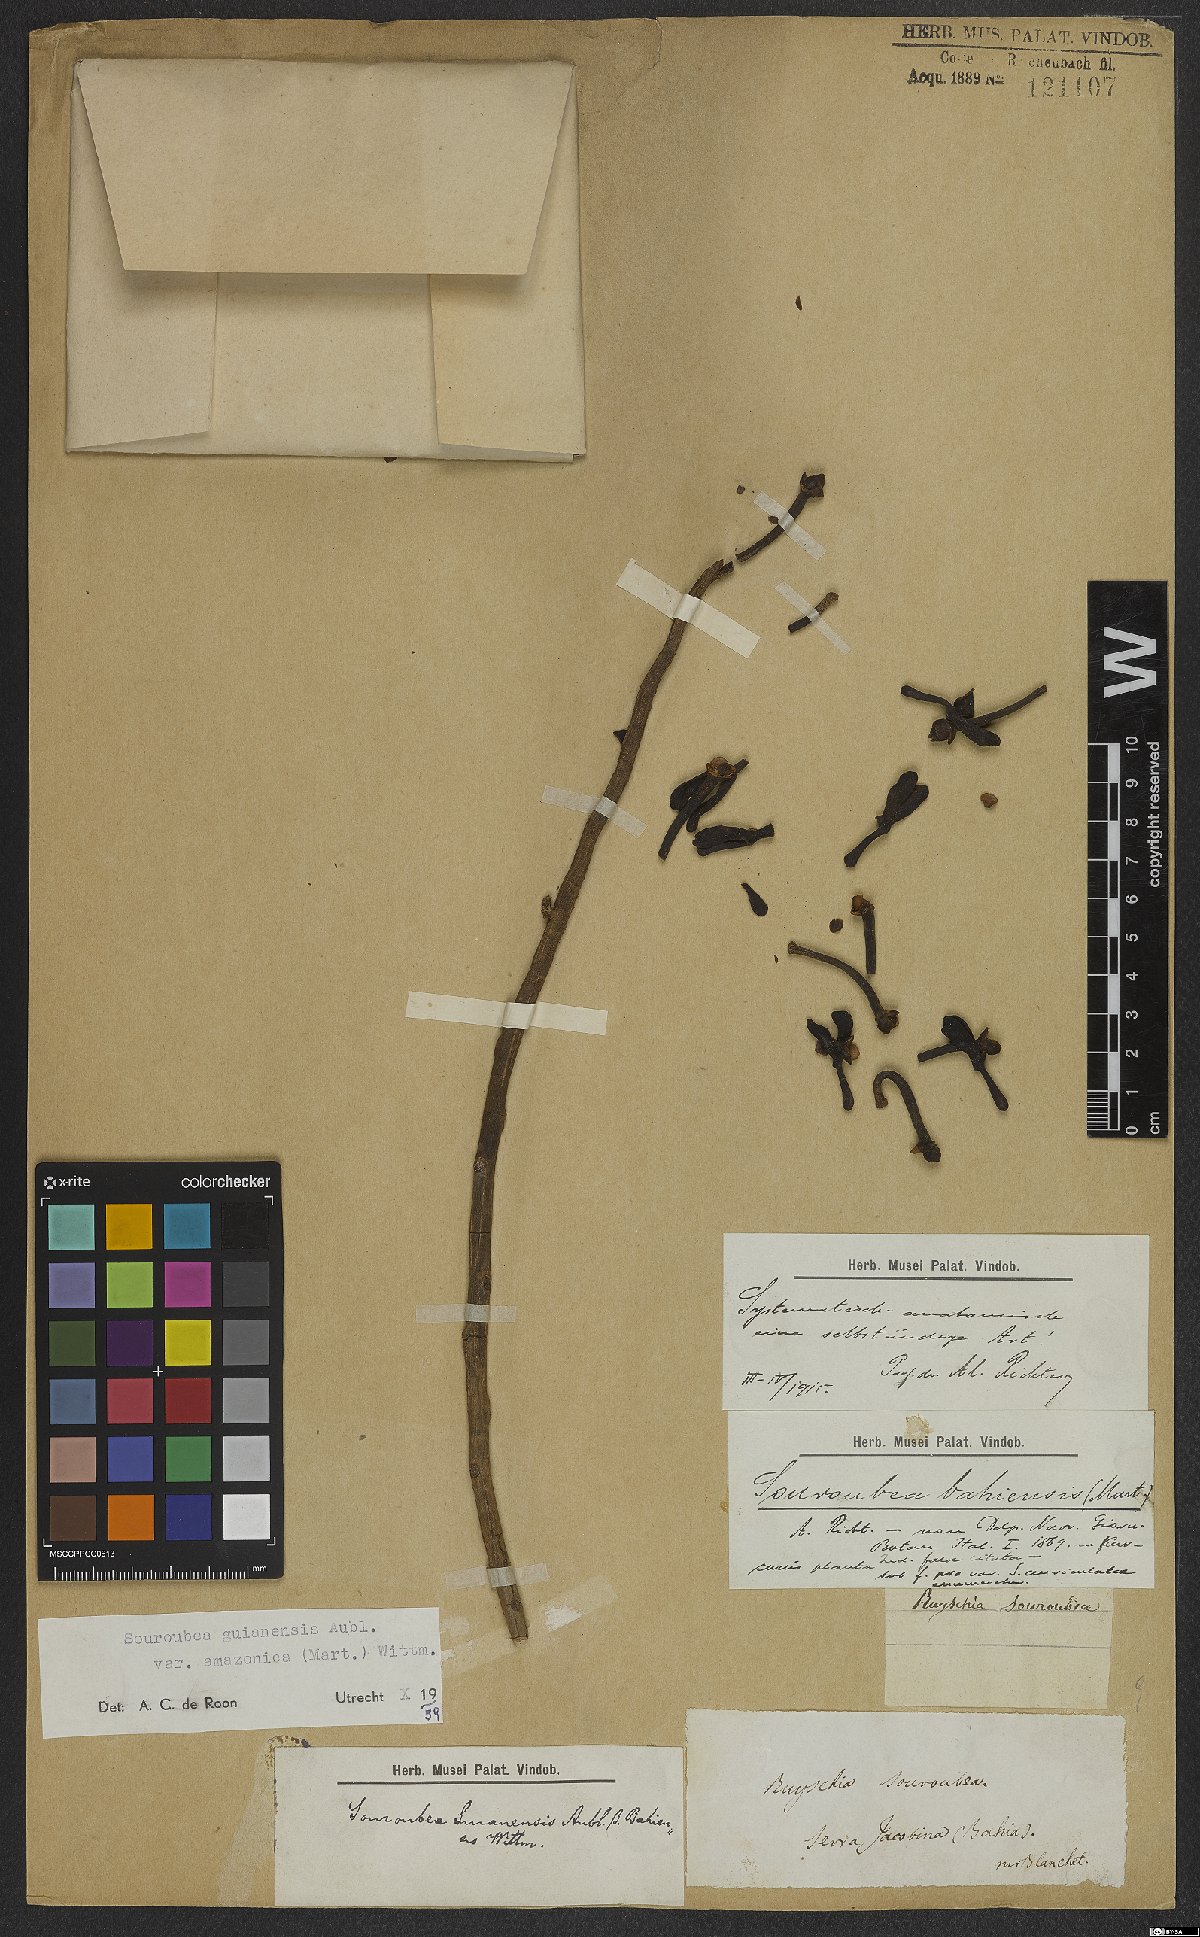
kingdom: Plantae
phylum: Tracheophyta
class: Magnoliopsida
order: Ericales
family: Marcgraviaceae
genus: Souroubea
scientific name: Souroubea guianensis
